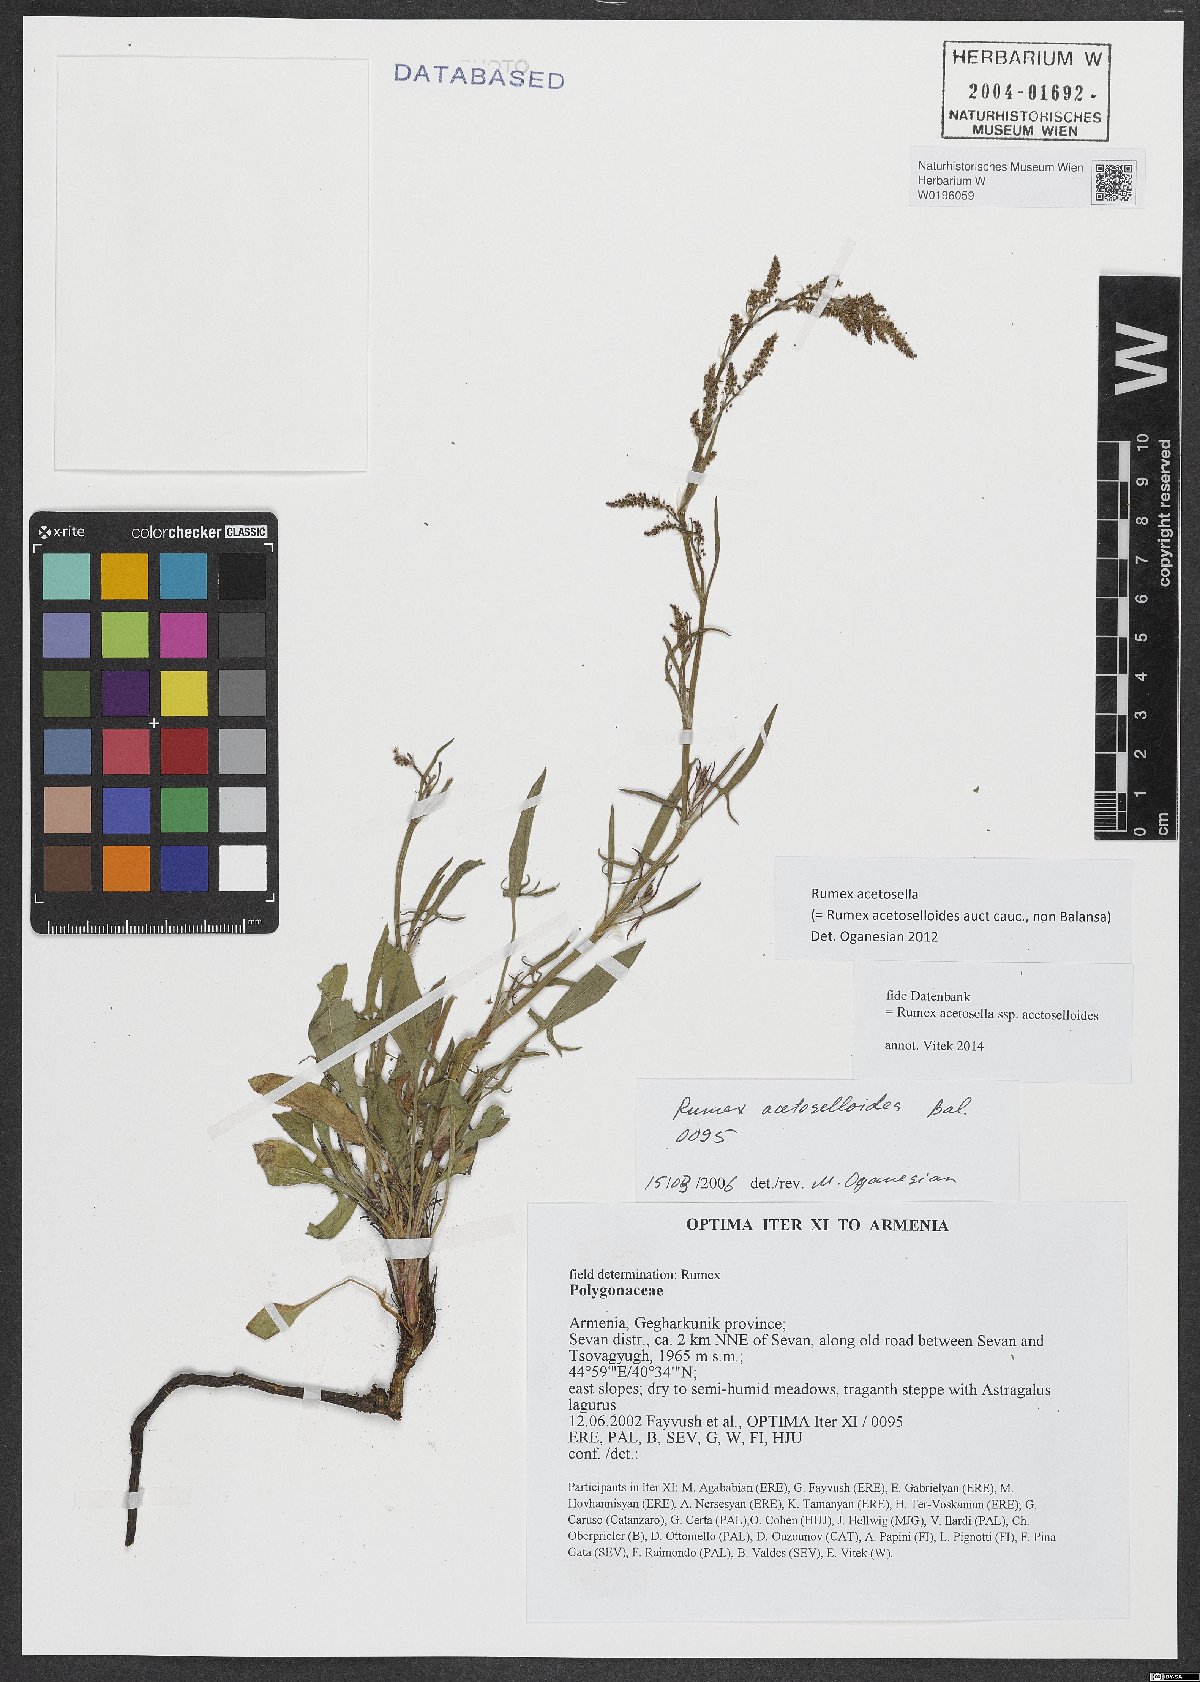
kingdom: Plantae
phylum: Tracheophyta
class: Magnoliopsida
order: Caryophyllales
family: Polygonaceae
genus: Rumex
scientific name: Rumex acetosella
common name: Common sheep sorrel
